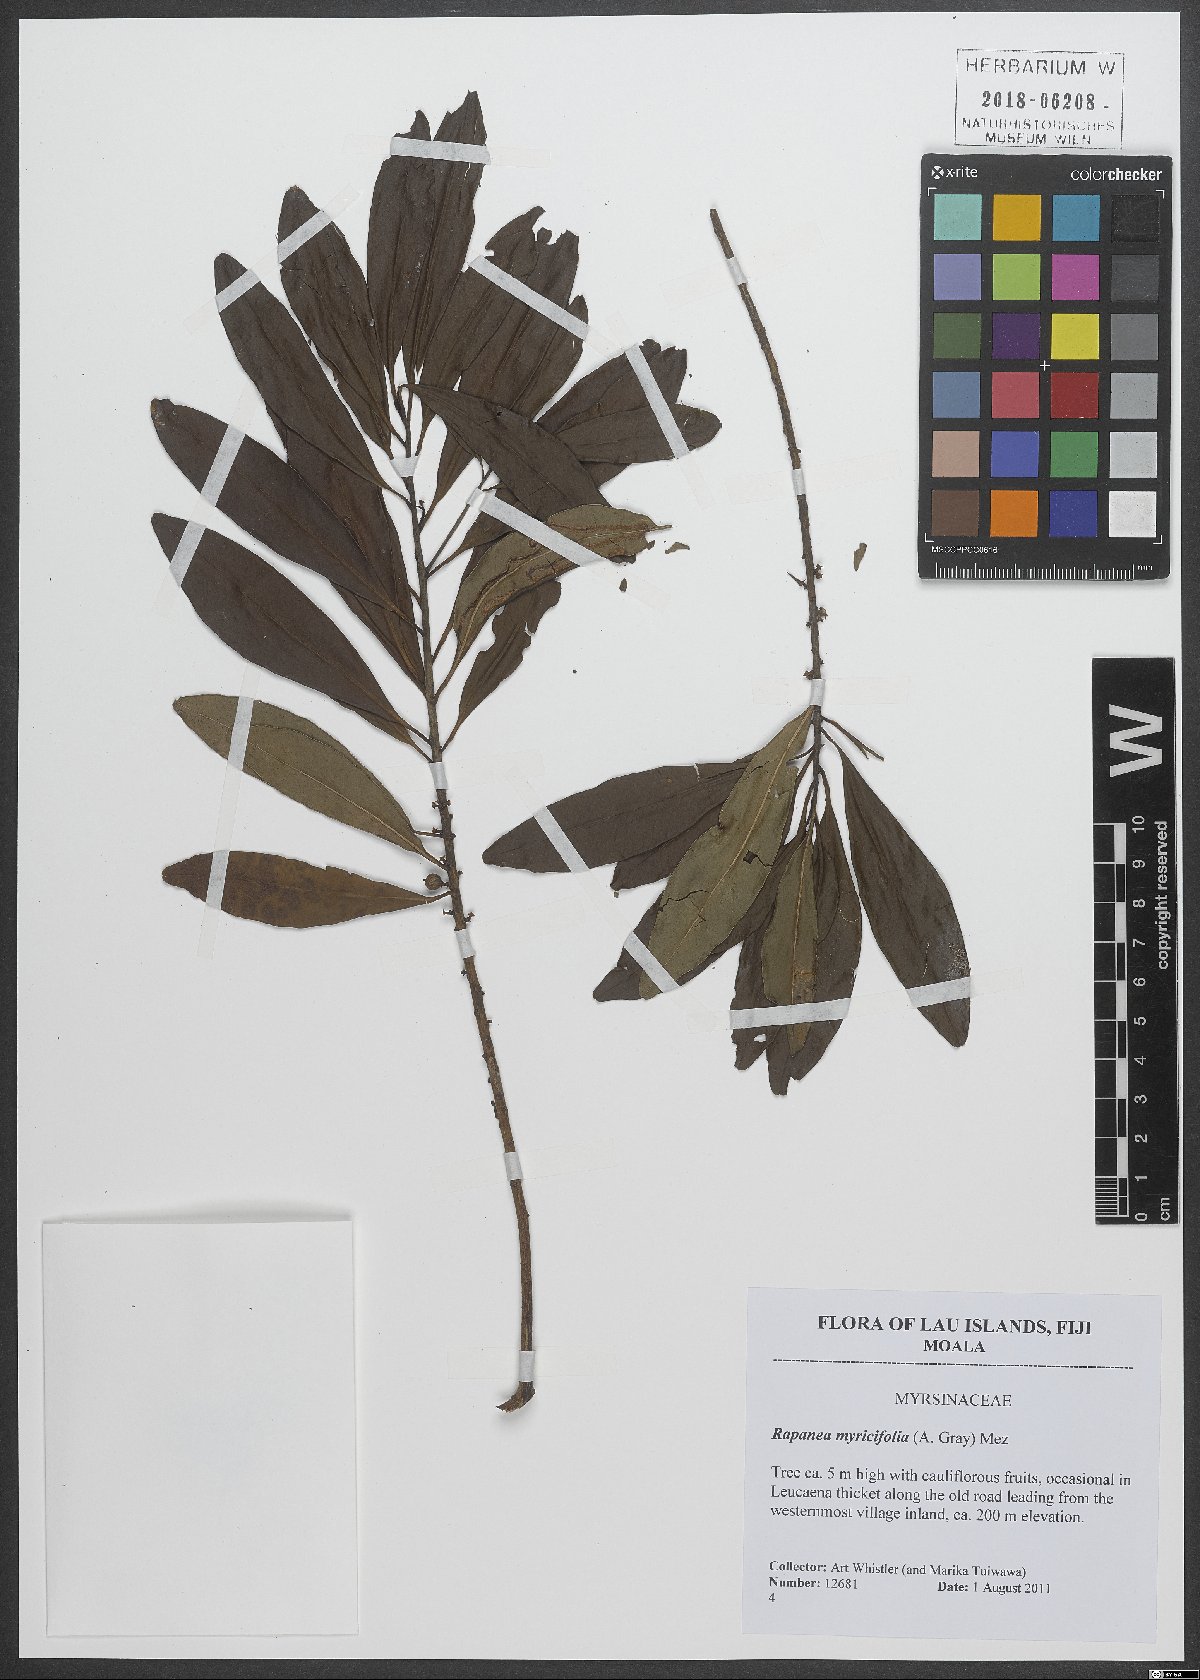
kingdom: Plantae
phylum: Tracheophyta
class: Magnoliopsida
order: Ericales
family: Primulaceae
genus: Myrsine
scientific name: Myrsine myricifolia
